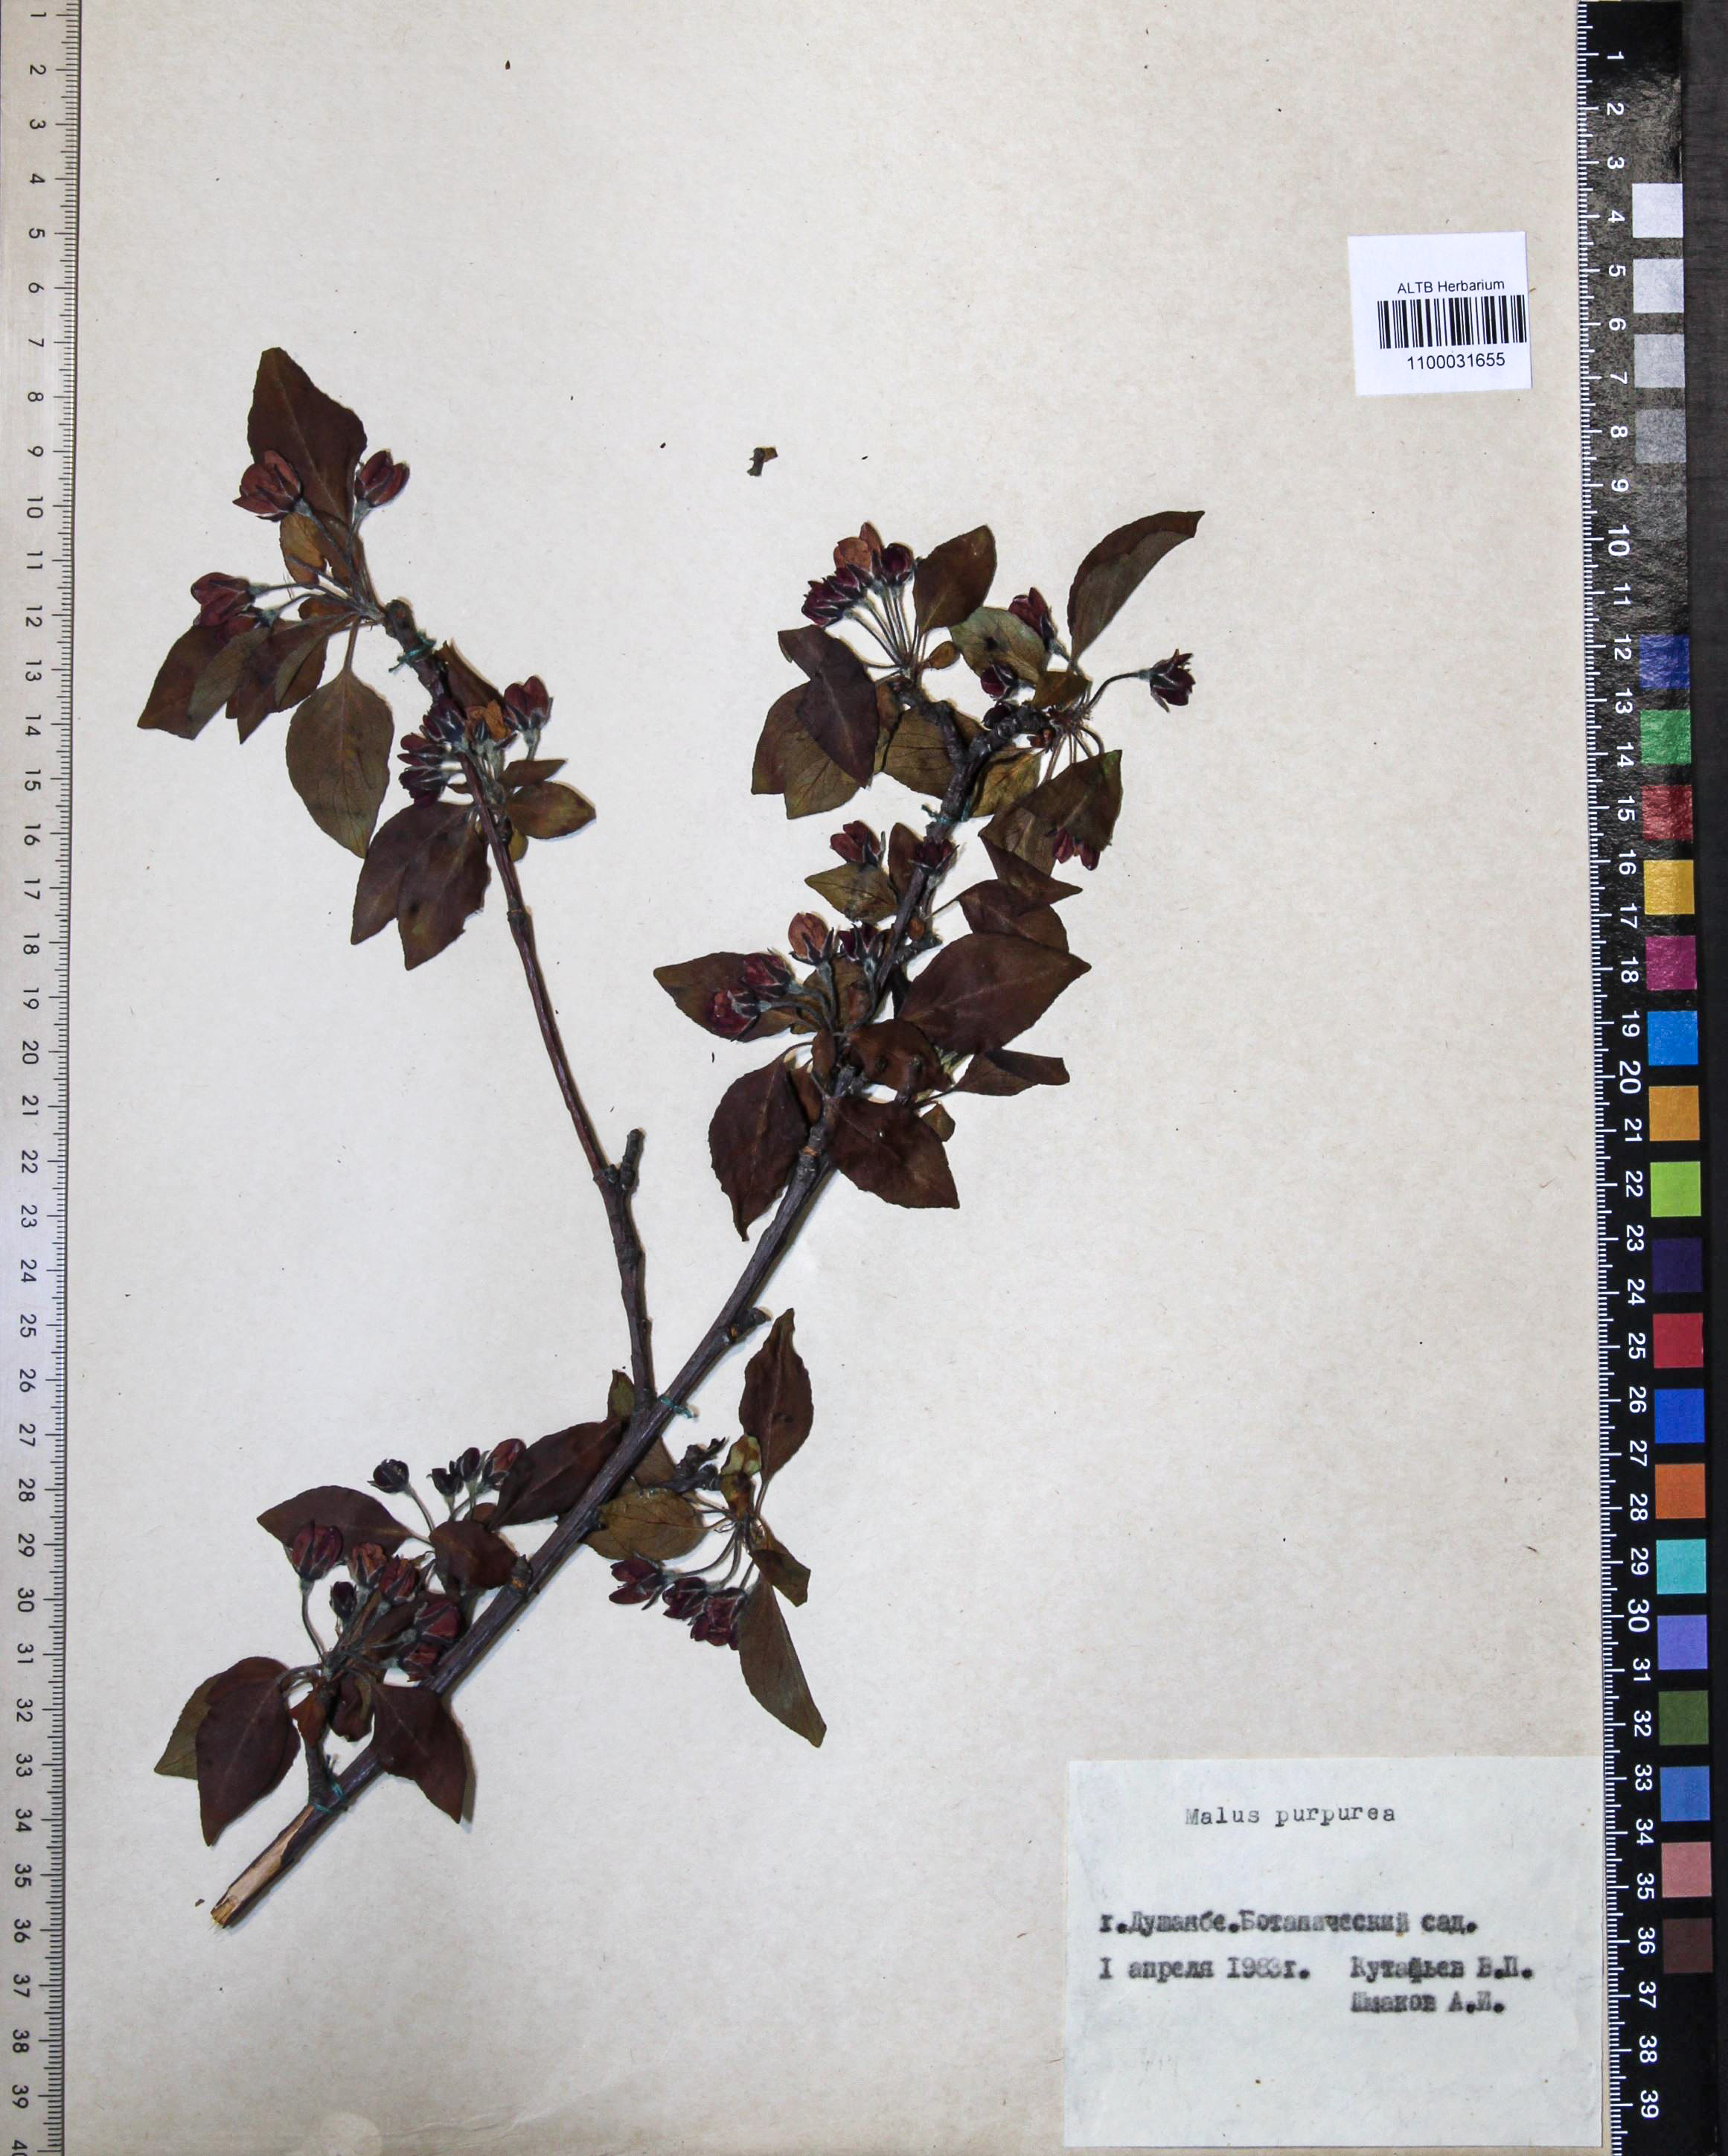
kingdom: Plantae
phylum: Tracheophyta
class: Magnoliopsida
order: Rosales
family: Rosaceae
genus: Malus
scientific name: Malus purpurea
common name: Purple crab apple
